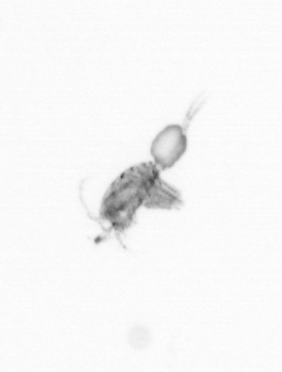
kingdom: Animalia
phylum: Arthropoda
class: Copepoda
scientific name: Copepoda
